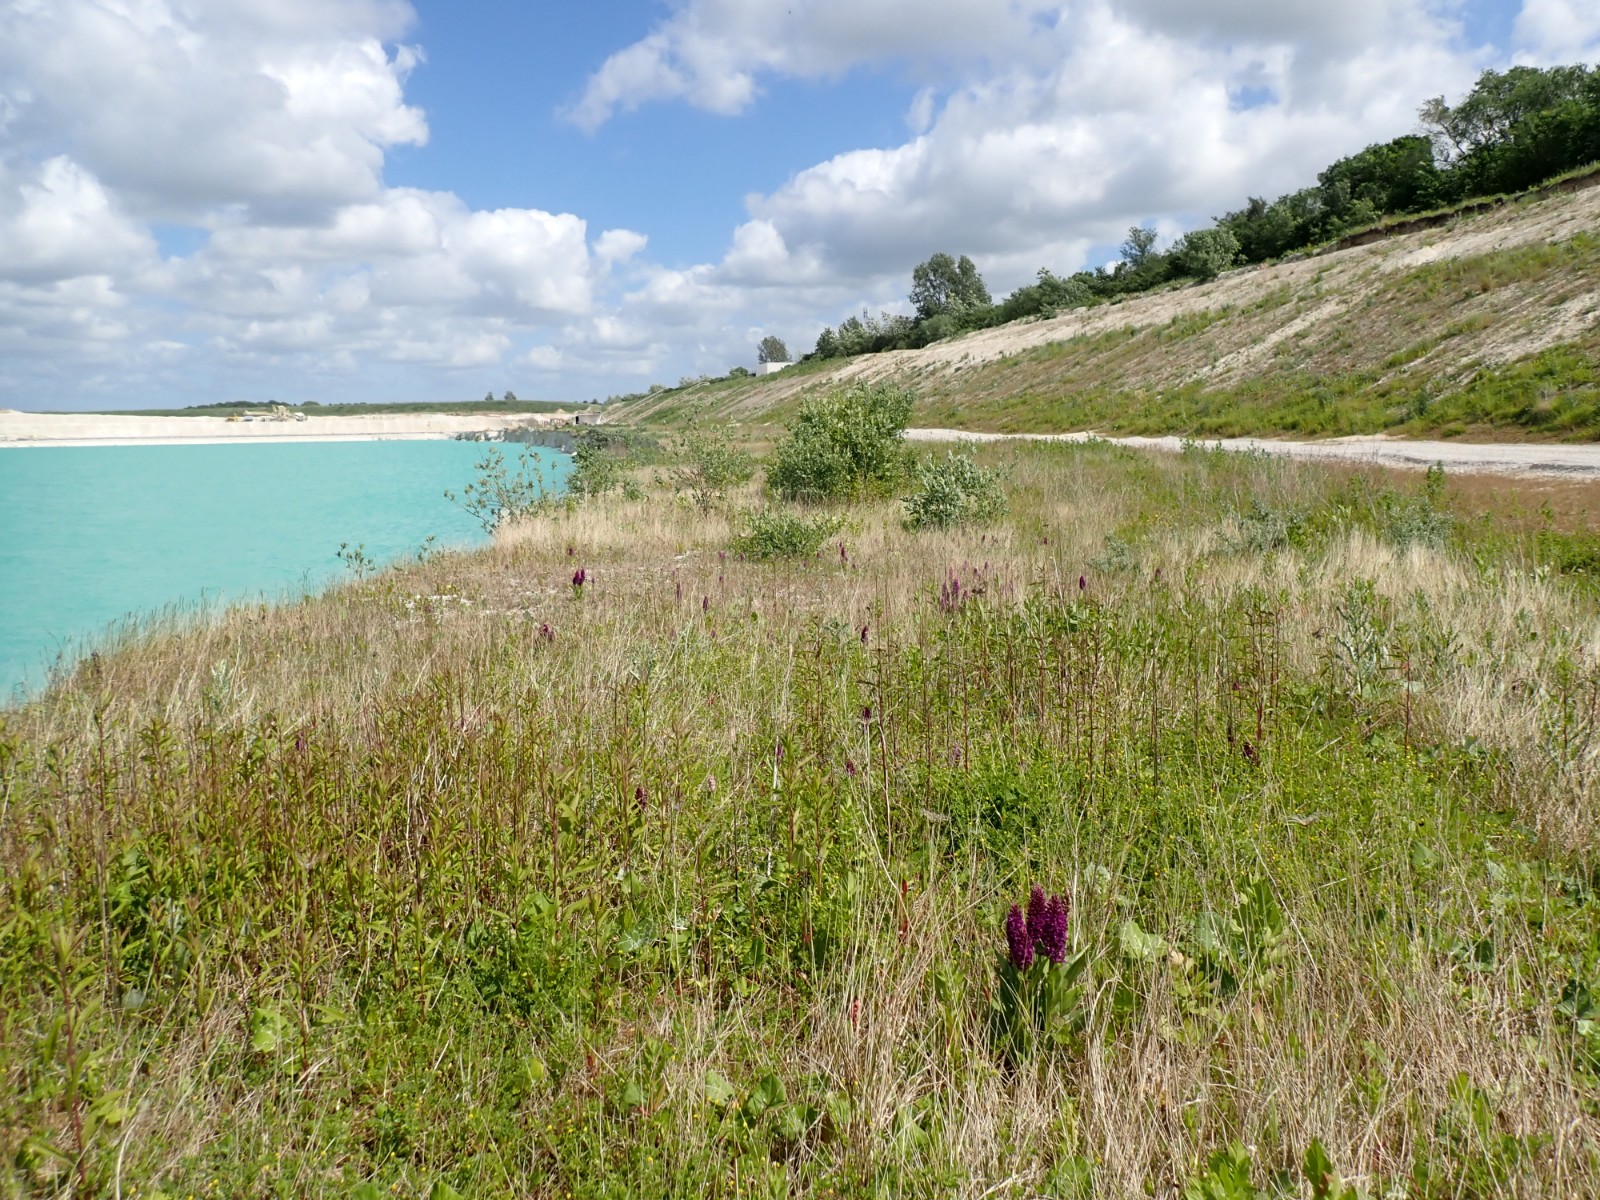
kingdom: Fungi
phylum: Basidiomycota
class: Pucciniomycetes
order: Pucciniales
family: Pucciniaceae
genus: Puccinia
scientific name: Puccinia poarum
